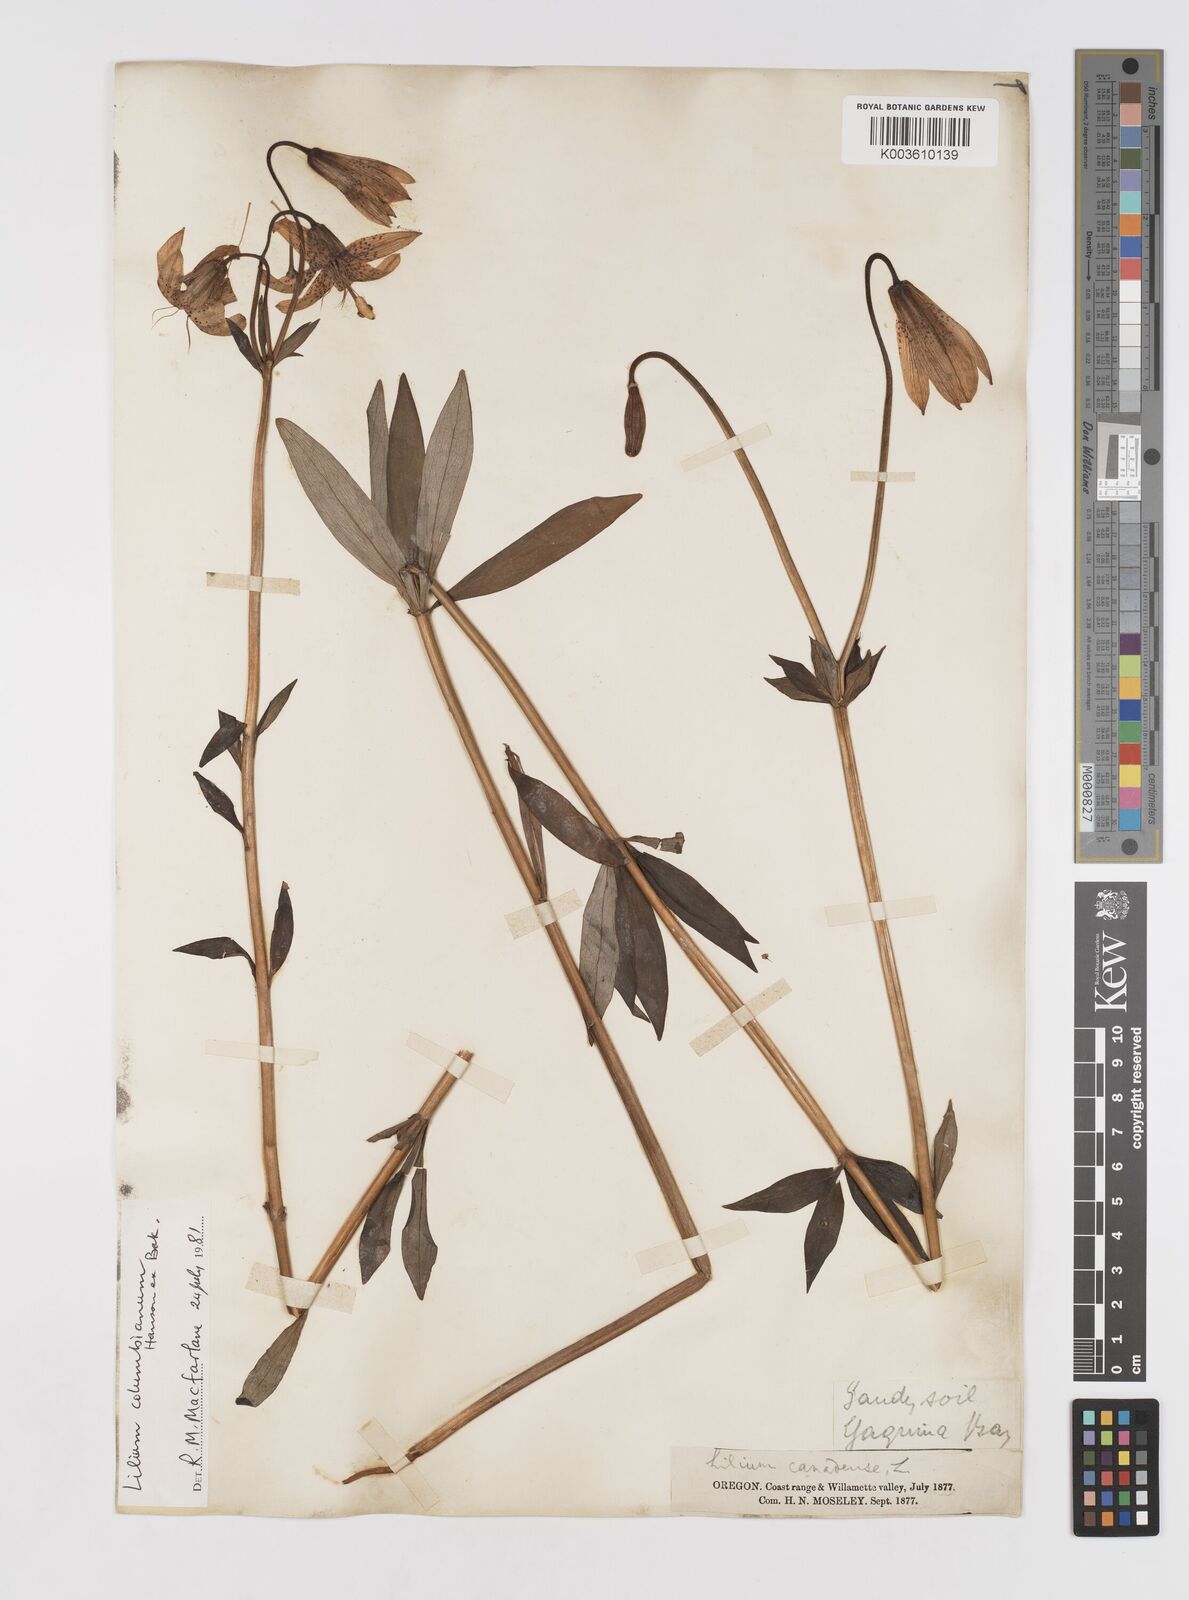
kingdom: Plantae
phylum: Tracheophyta
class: Liliopsida
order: Liliales
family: Liliaceae
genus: Lilium
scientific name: Lilium columbianum
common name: Columbia lily
